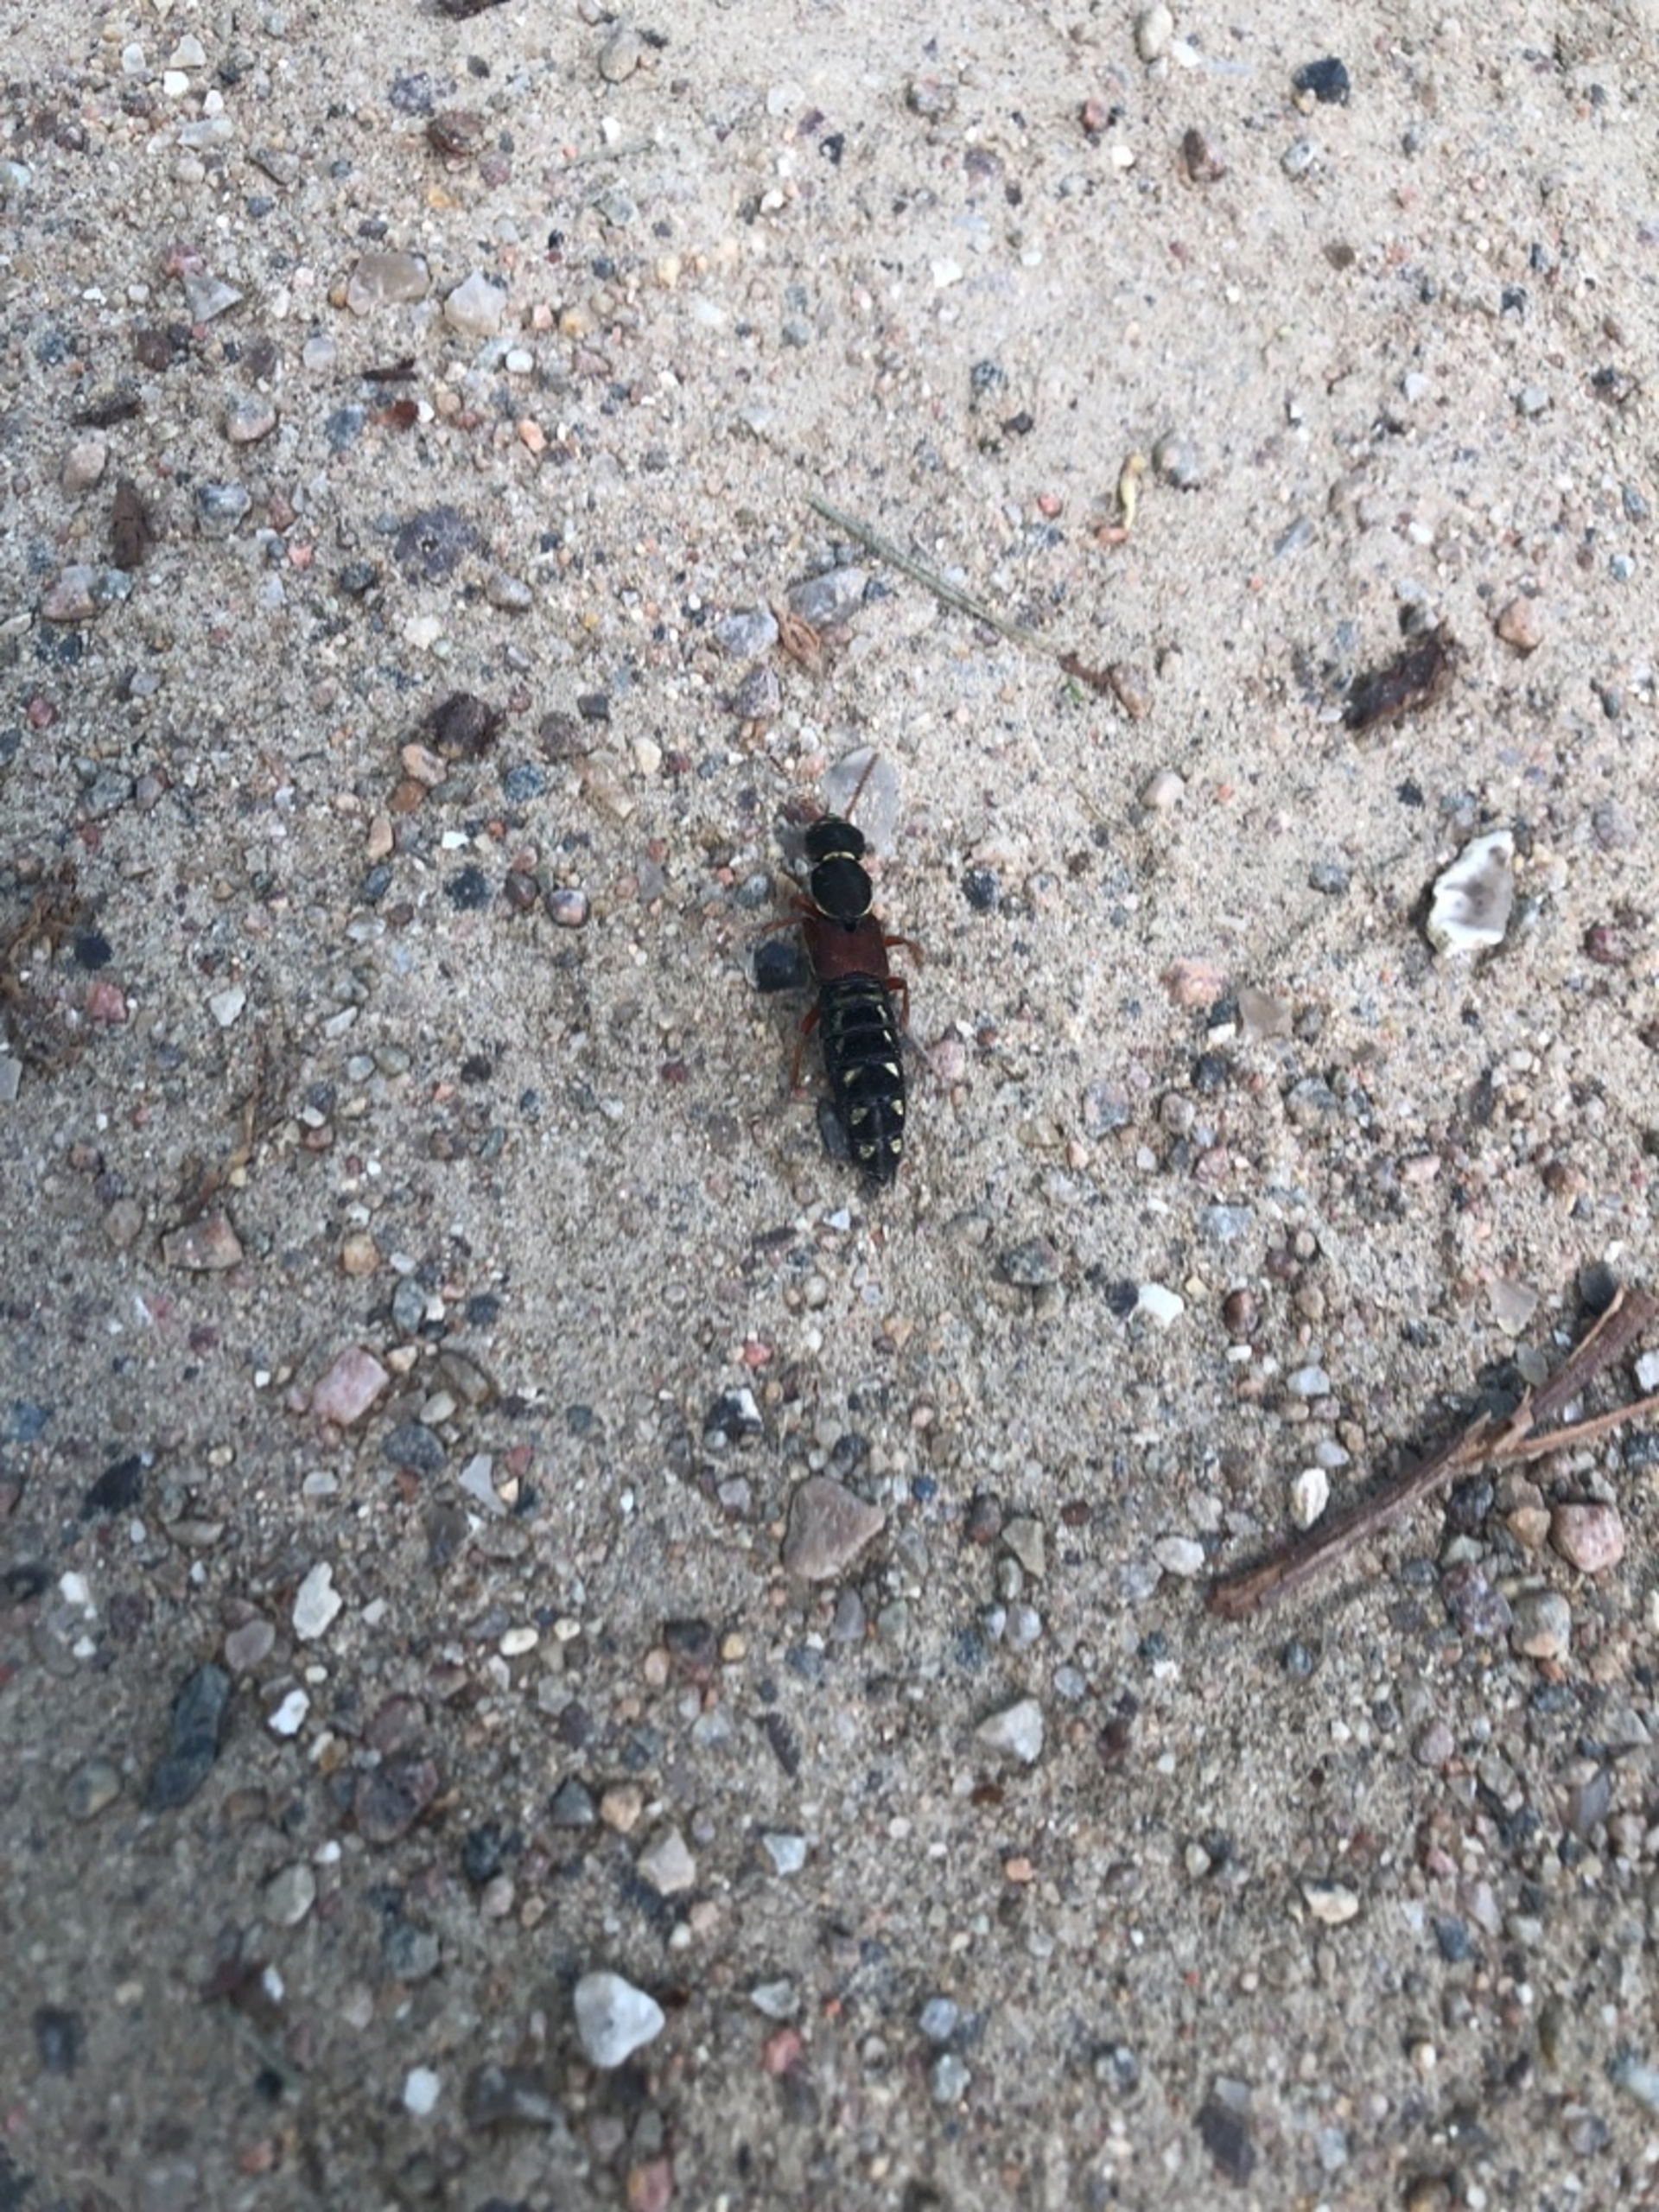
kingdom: Animalia
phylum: Arthropoda
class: Insecta
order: Coleoptera
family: Staphylinidae
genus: Staphylinus
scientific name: Staphylinus
